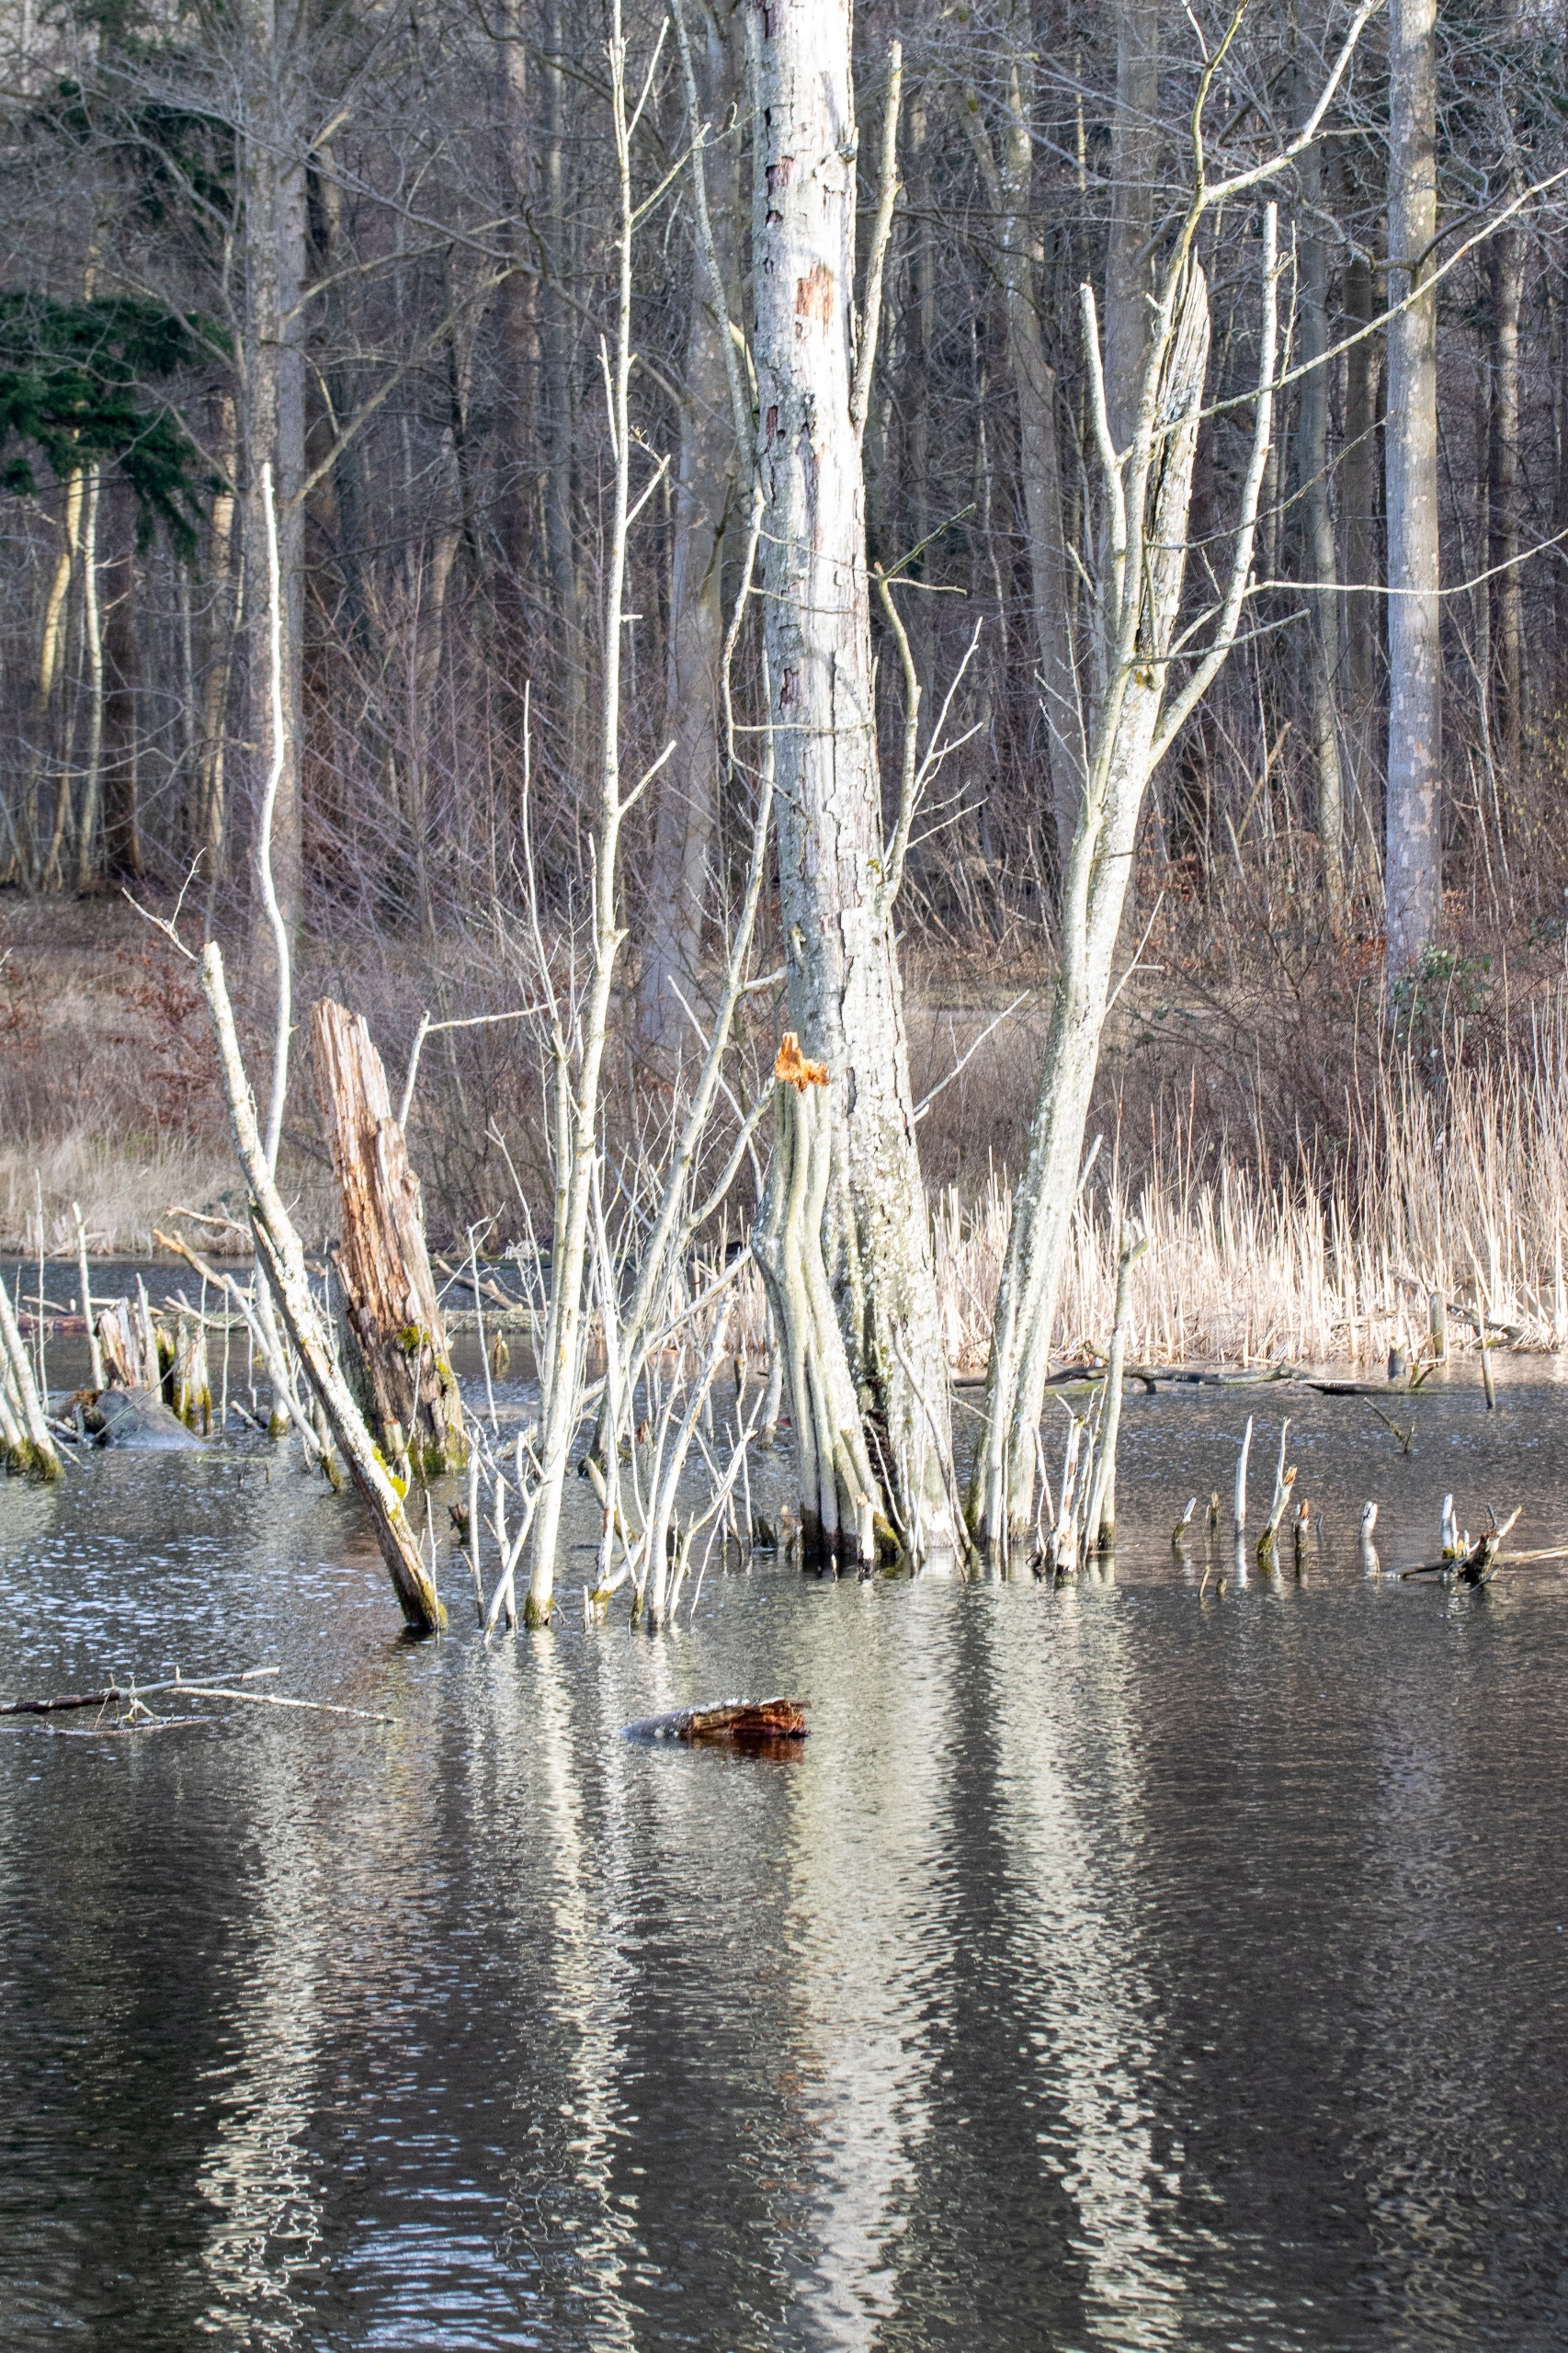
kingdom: Plantae
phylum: Tracheophyta
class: Magnoliopsida
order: Fagales
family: Betulaceae
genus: Alnus
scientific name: Alnus glutinosa
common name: Rød-el
